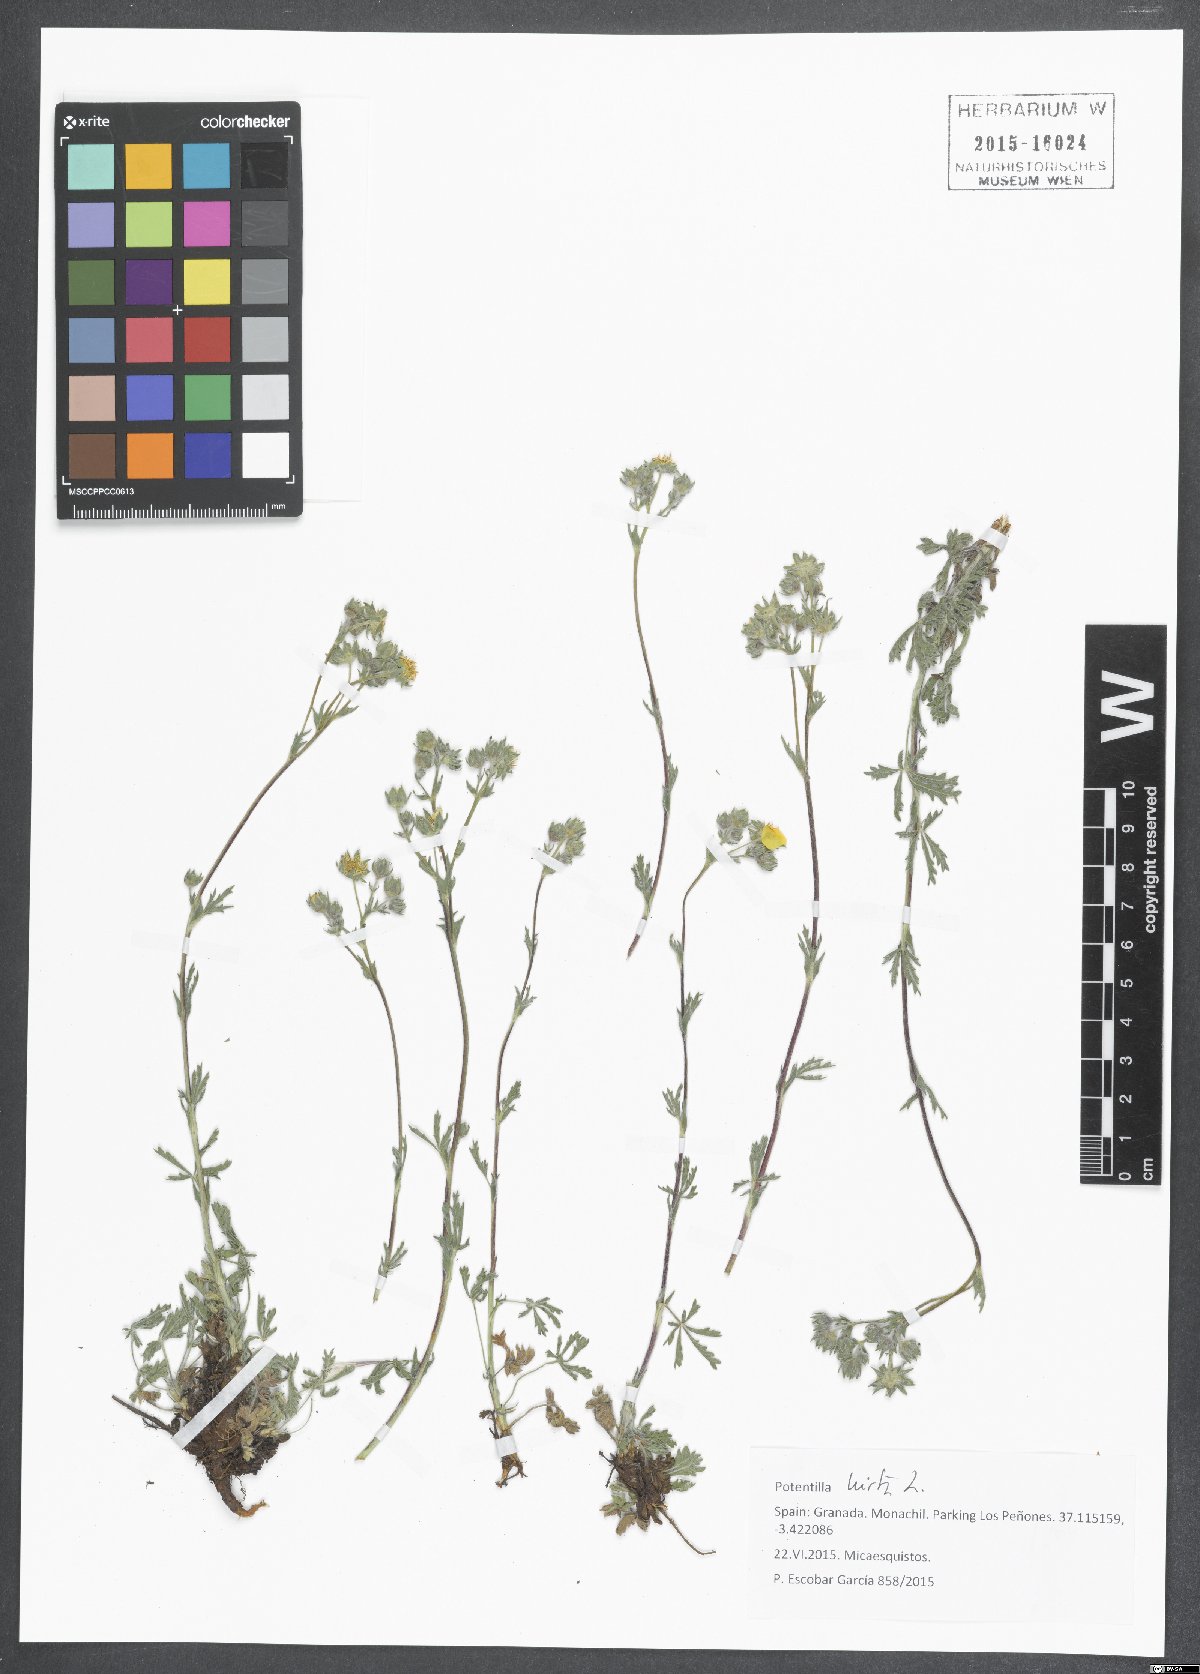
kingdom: Plantae
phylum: Tracheophyta
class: Magnoliopsida
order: Rosales
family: Rosaceae
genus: Potentilla
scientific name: Potentilla hirta
